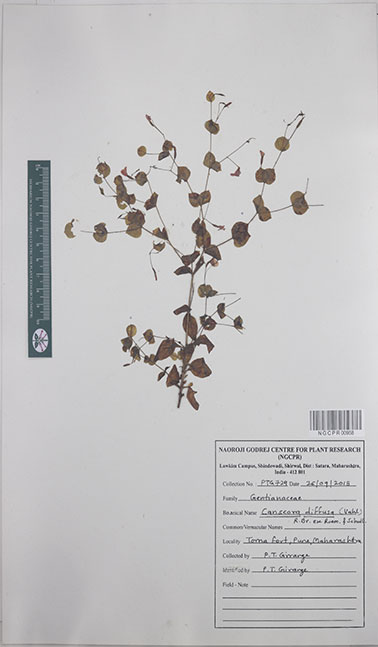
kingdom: Plantae
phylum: Tracheophyta
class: Magnoliopsida
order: Gentianales
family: Gentianaceae
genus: Canscora
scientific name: Canscora diffusa
